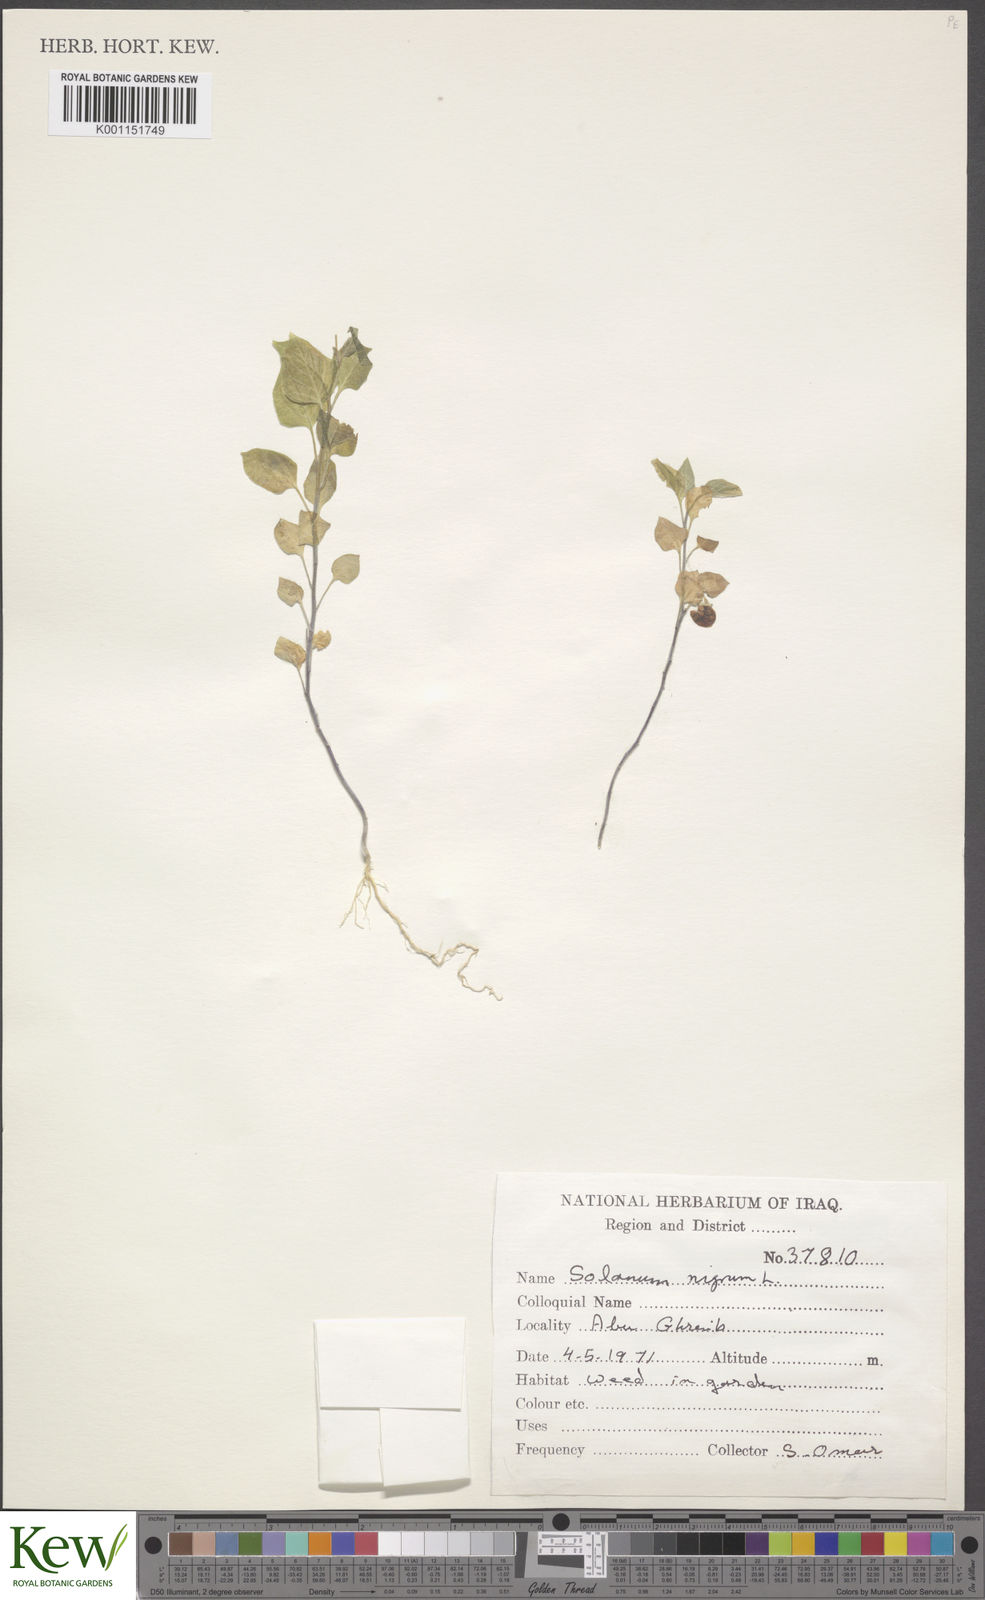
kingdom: Plantae
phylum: Tracheophyta
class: Magnoliopsida
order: Solanales
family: Solanaceae
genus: Solanum
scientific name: Solanum nigrum
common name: Black nightshade
